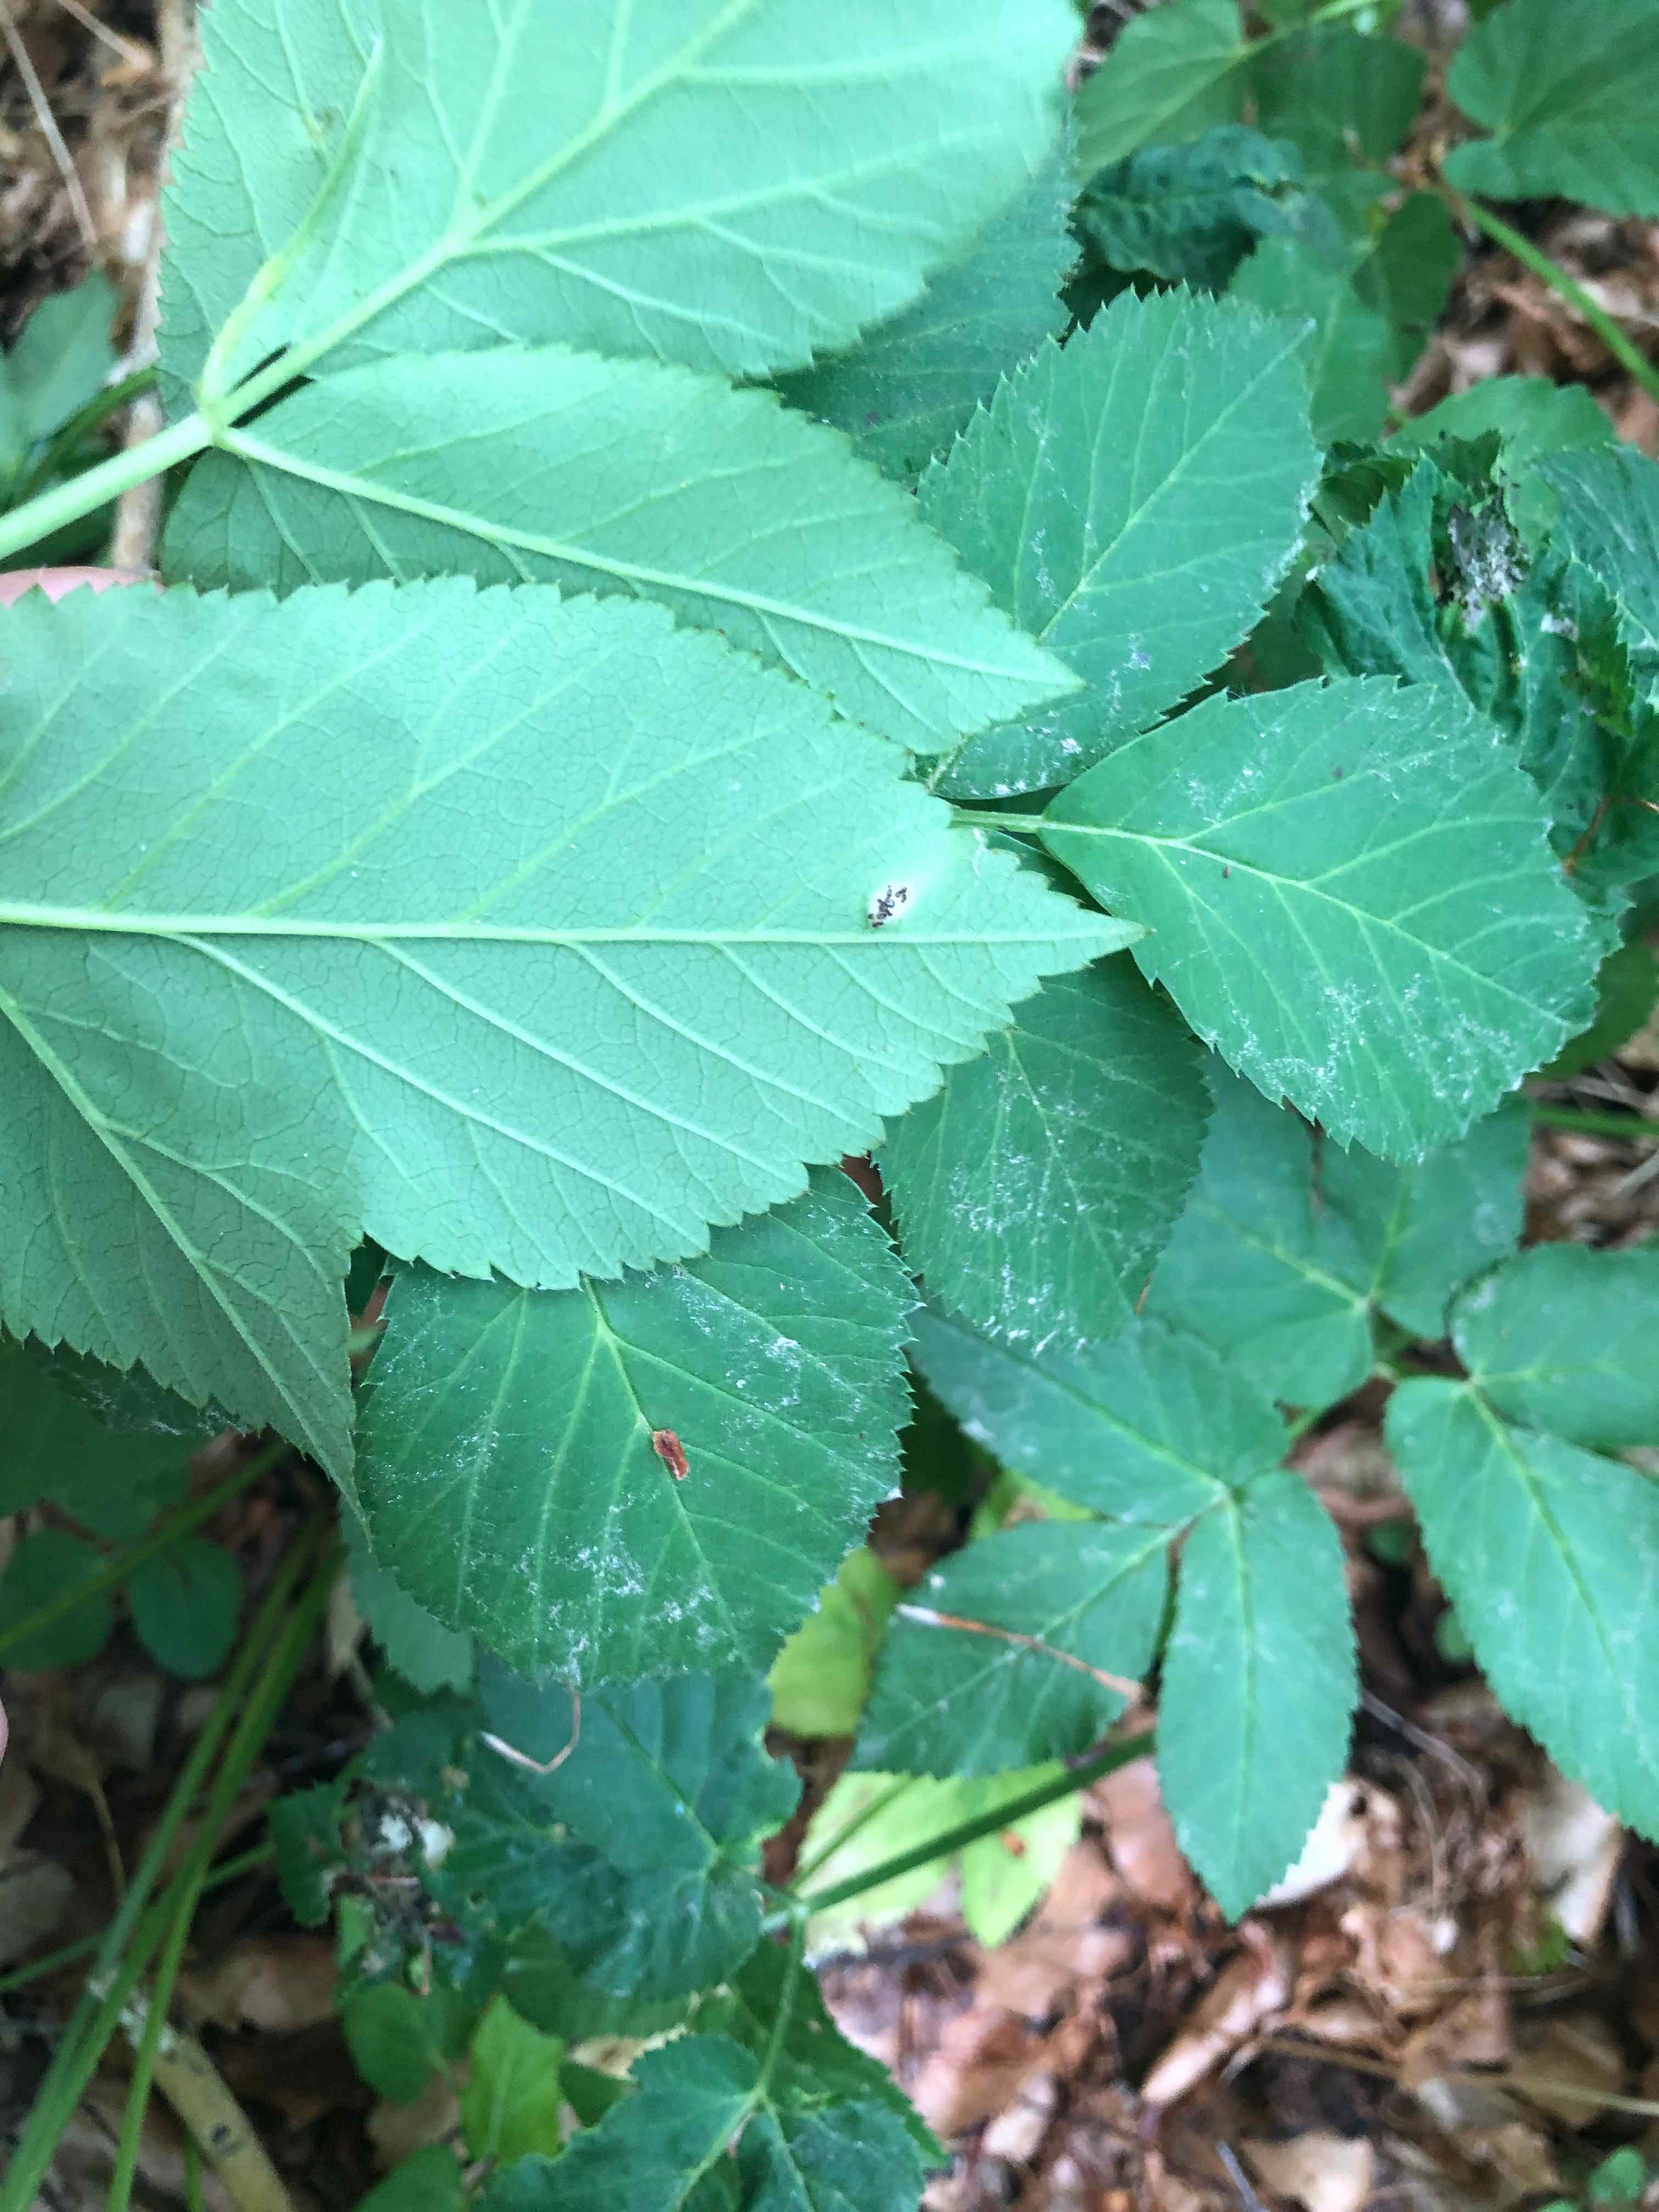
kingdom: Fungi
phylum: Basidiomycota
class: Pucciniomycetes
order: Pucciniales
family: Pucciniaceae
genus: Puccinia
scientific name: Puccinia
